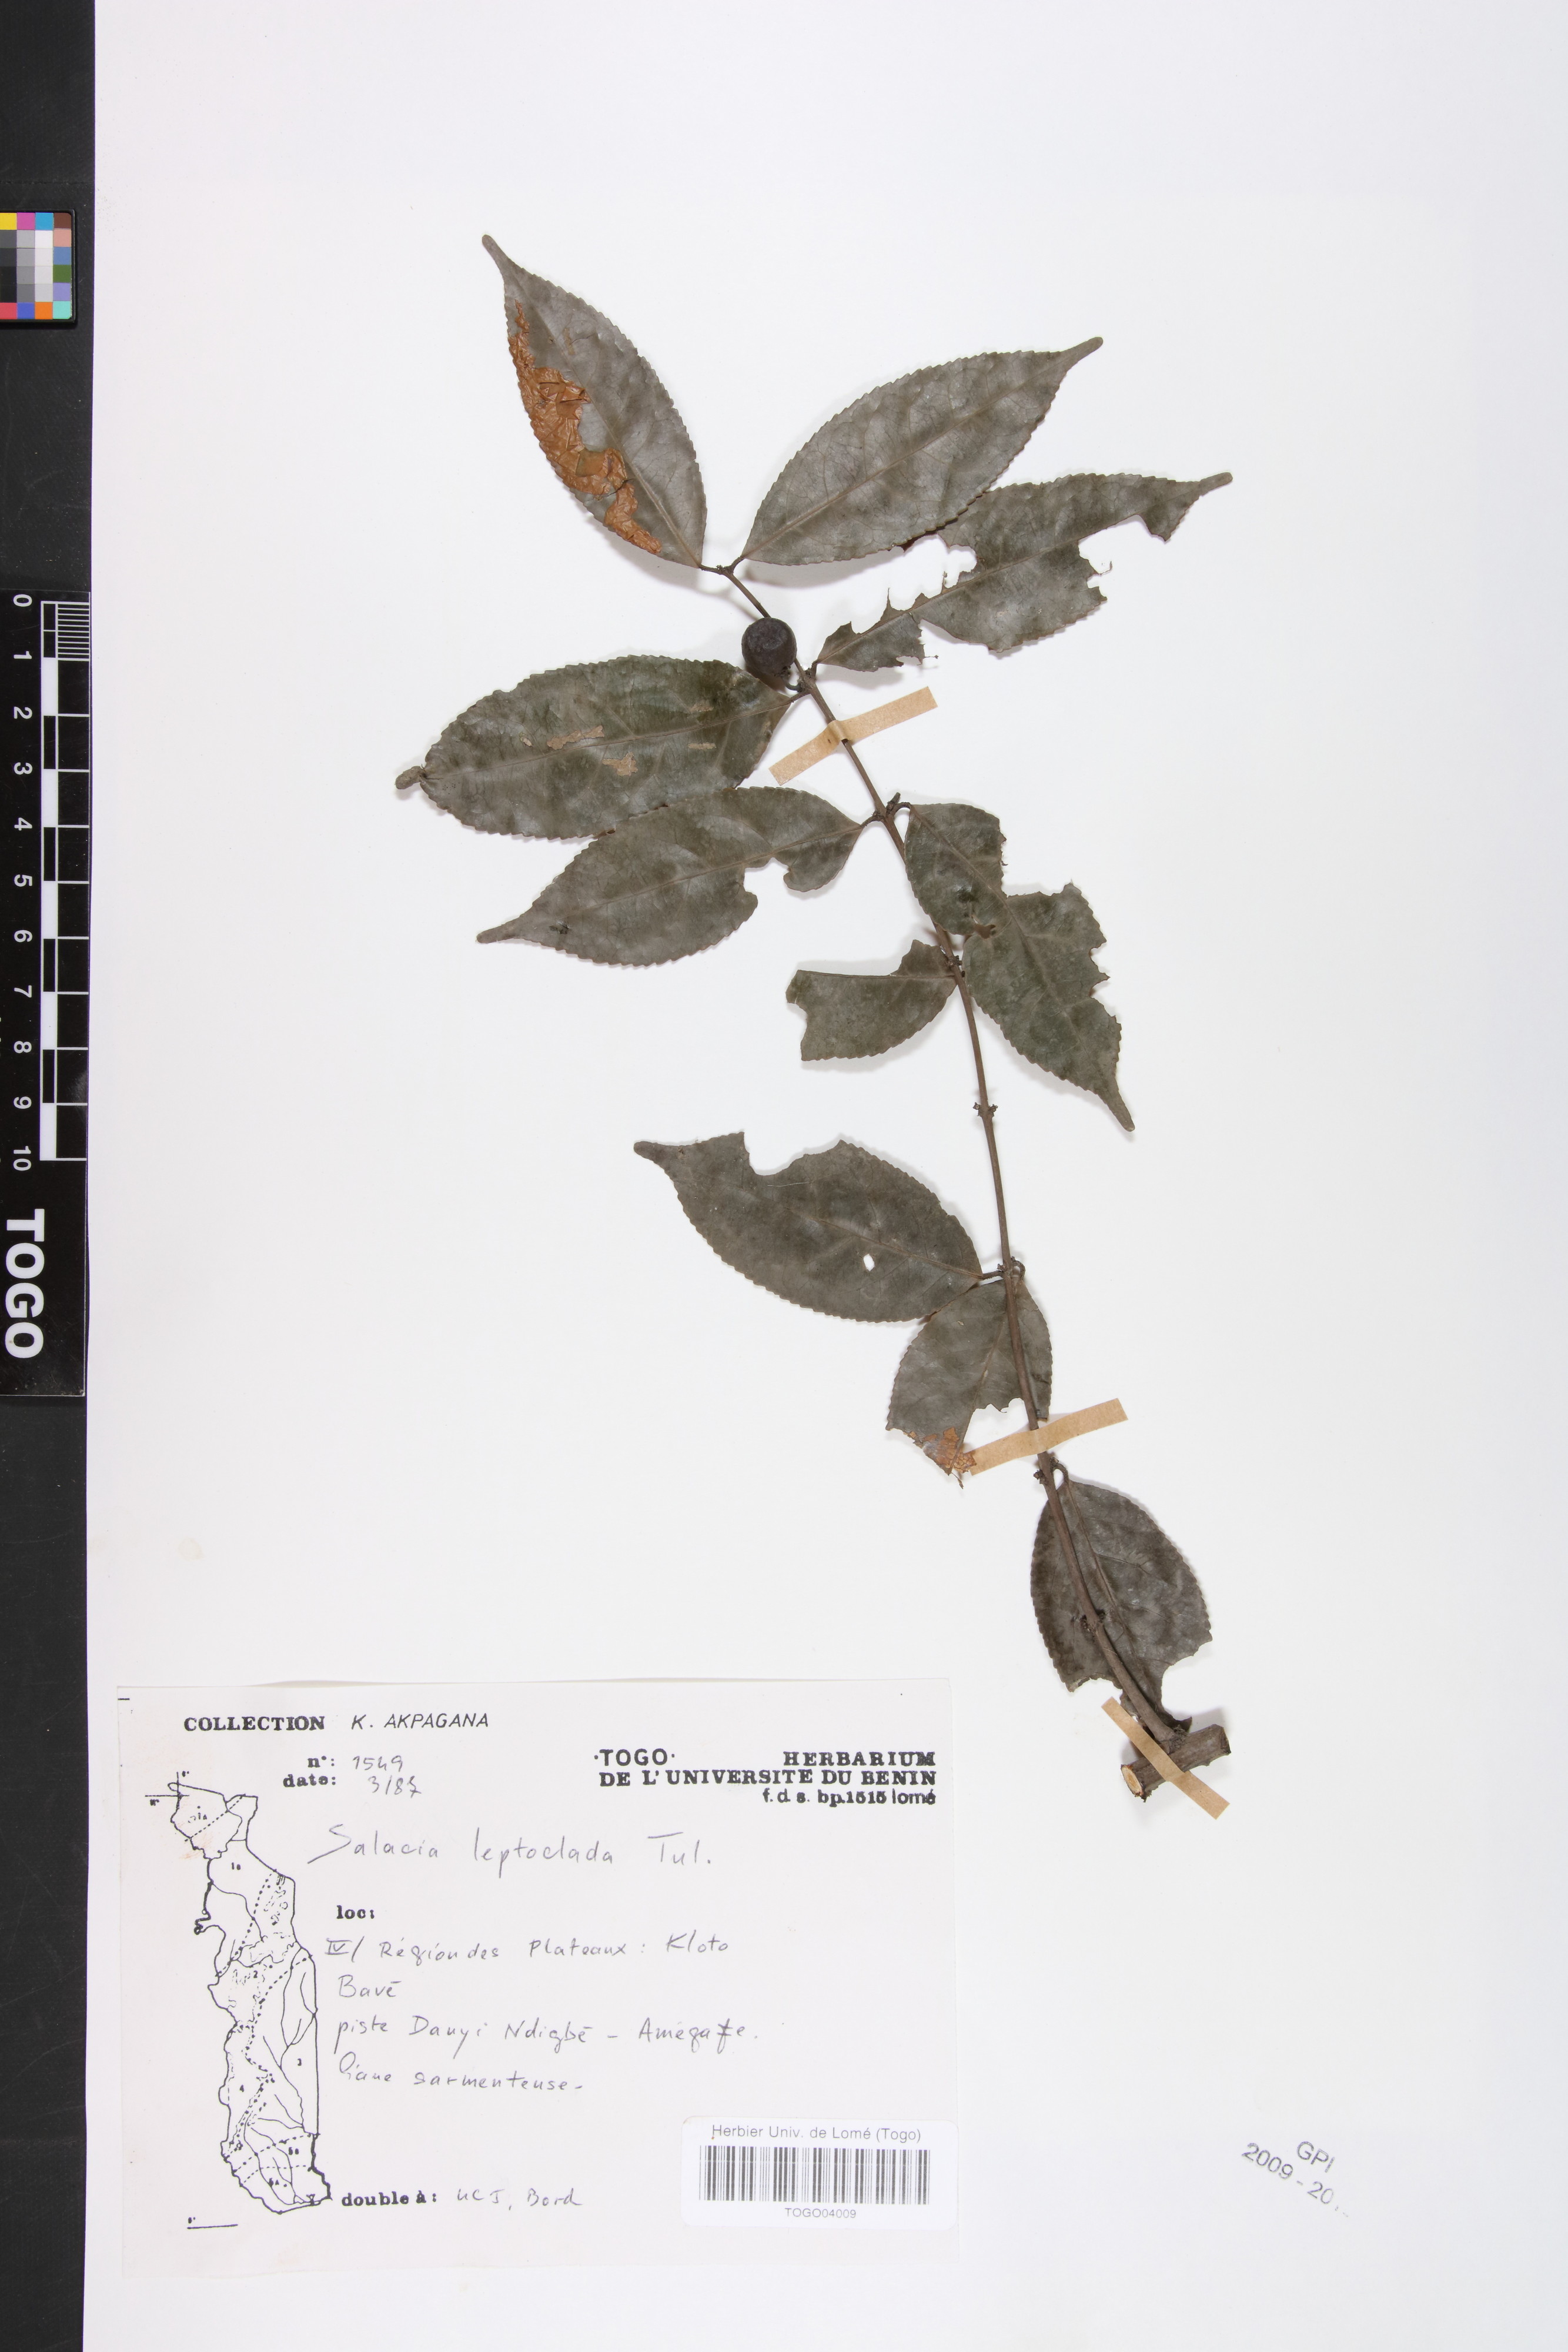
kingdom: Plantae
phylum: Tracheophyta
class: Magnoliopsida
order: Celastrales
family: Celastraceae
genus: Salacia
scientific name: Salacia leptoclada
